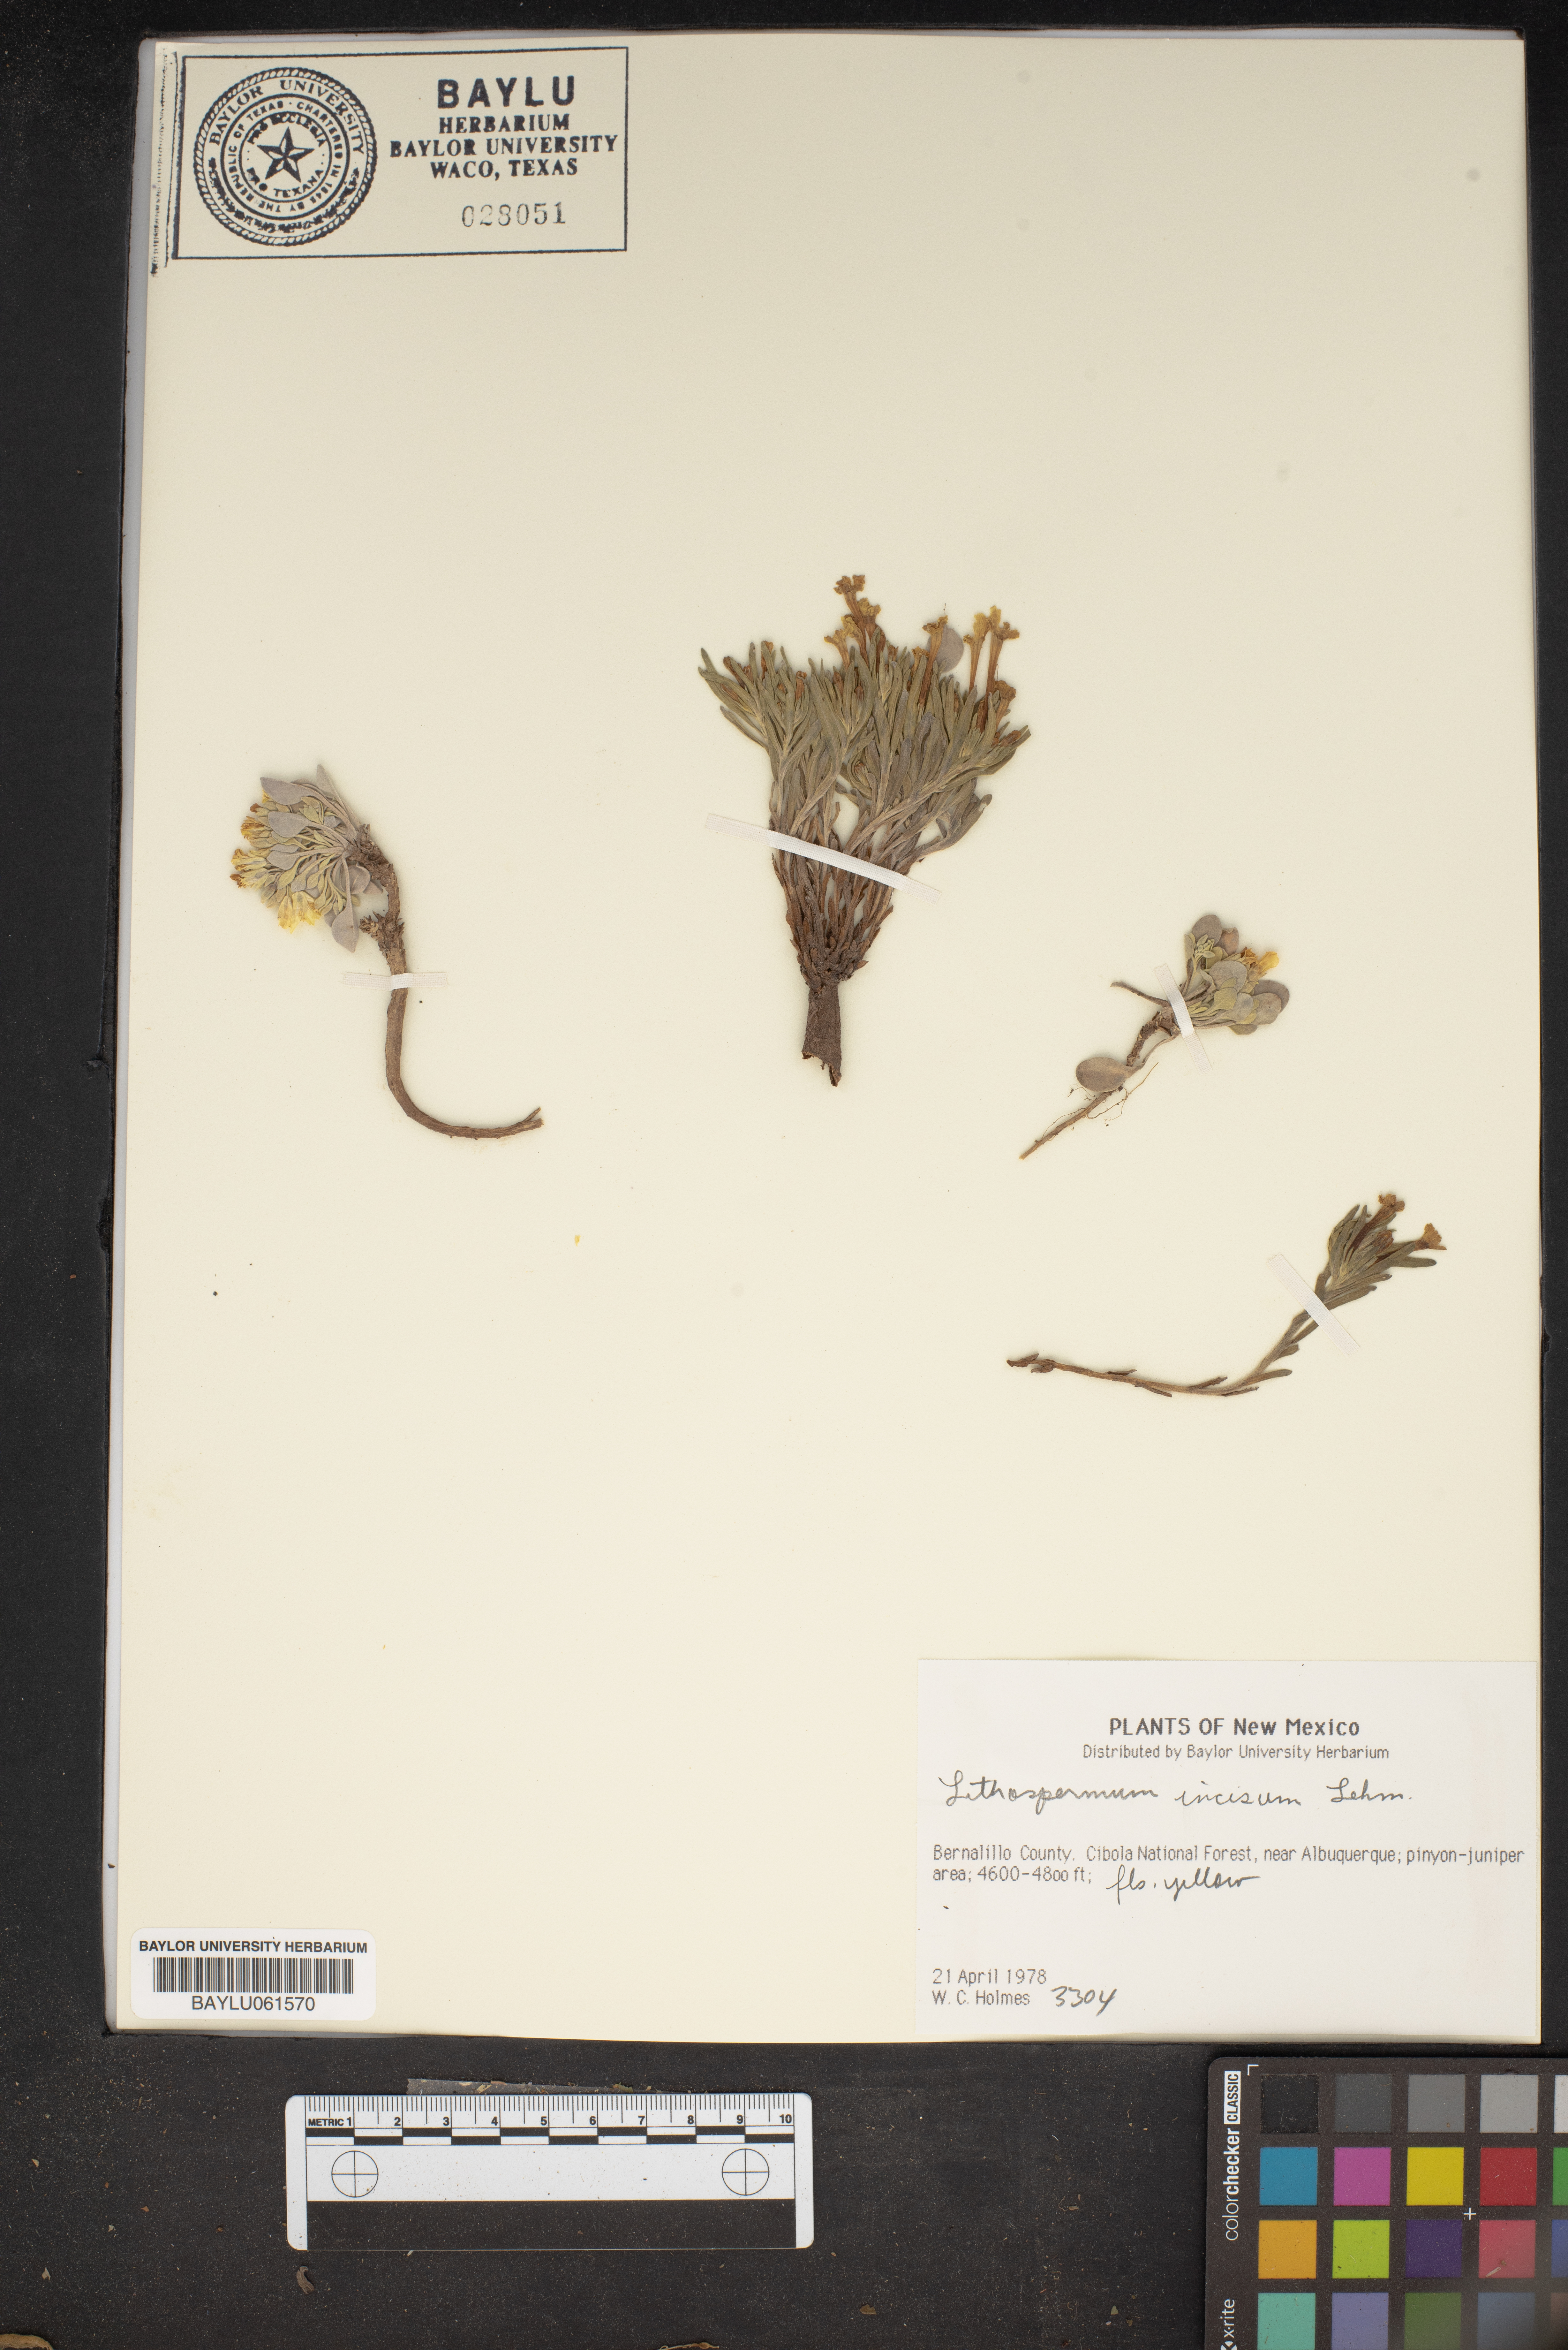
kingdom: Plantae
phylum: Tracheophyta
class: Magnoliopsida
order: Boraginales
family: Boraginaceae
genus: Lithospermum
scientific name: Lithospermum incisum
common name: Fringed gromwell
